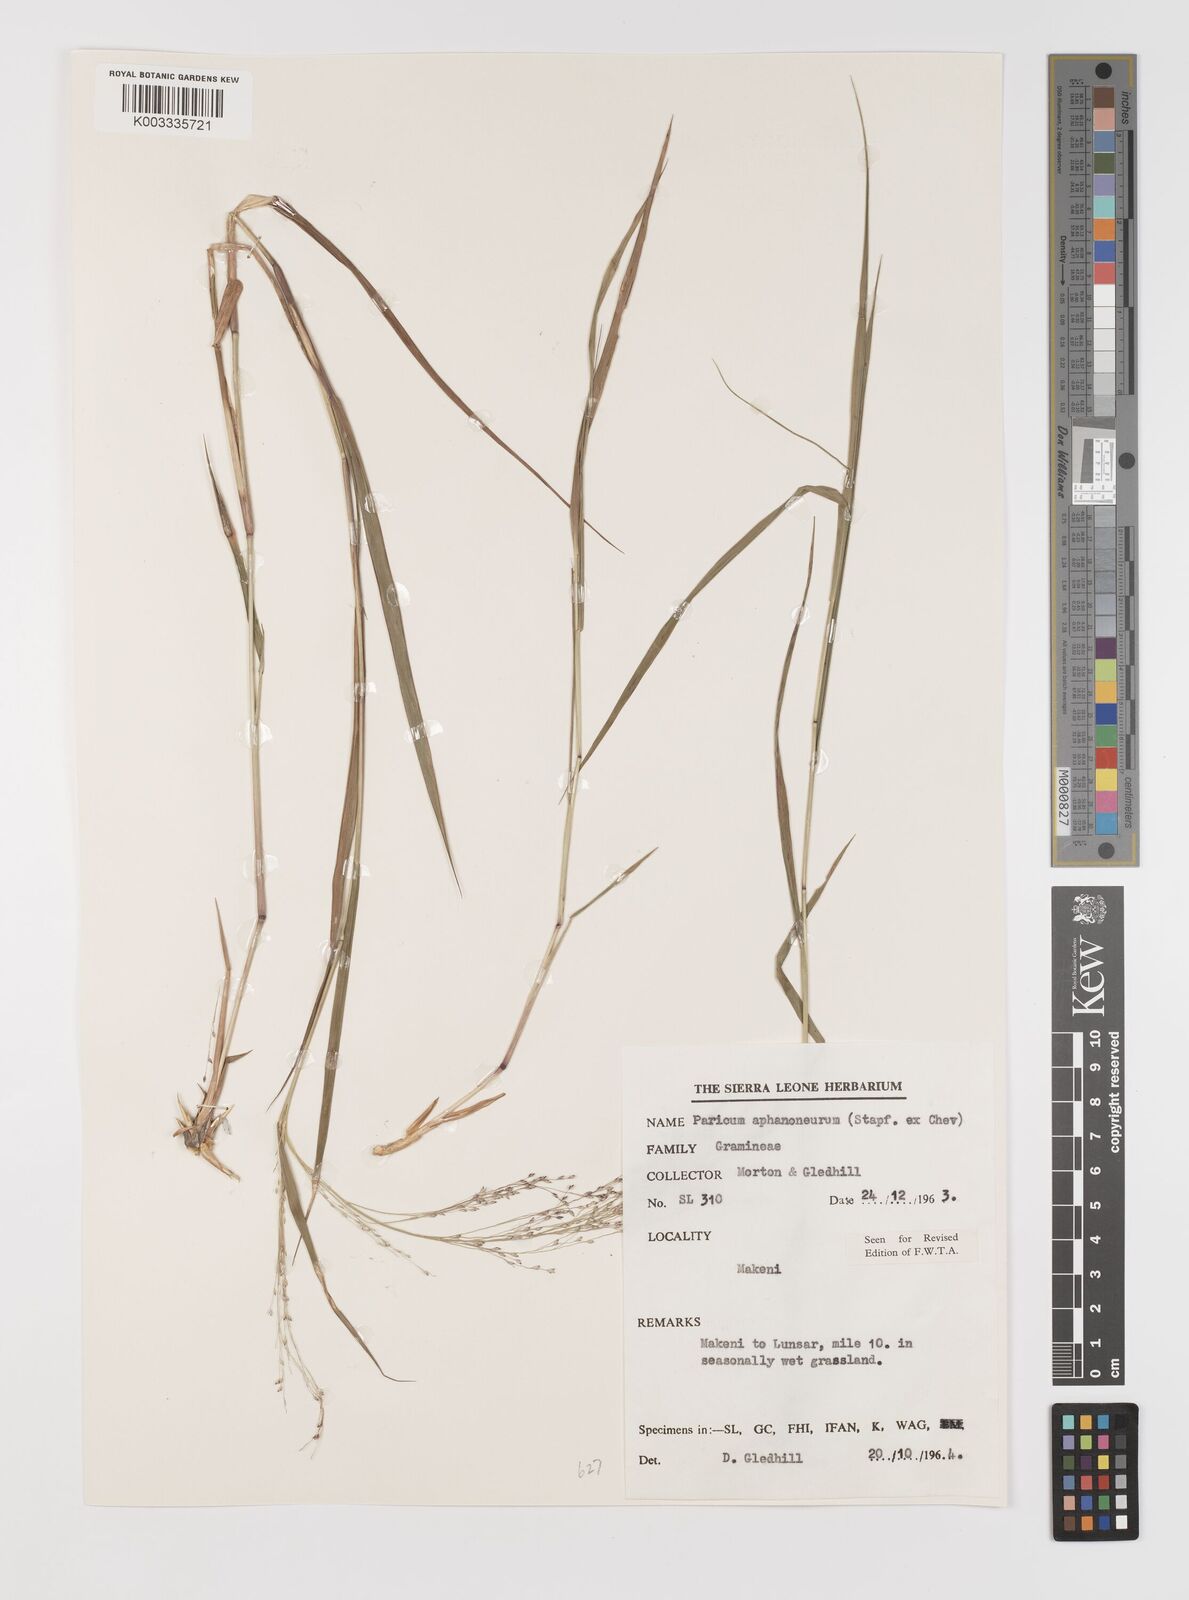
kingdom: Plantae
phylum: Tracheophyta
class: Liliopsida
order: Poales
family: Poaceae
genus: Panicum
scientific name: Panicum fluviicola
